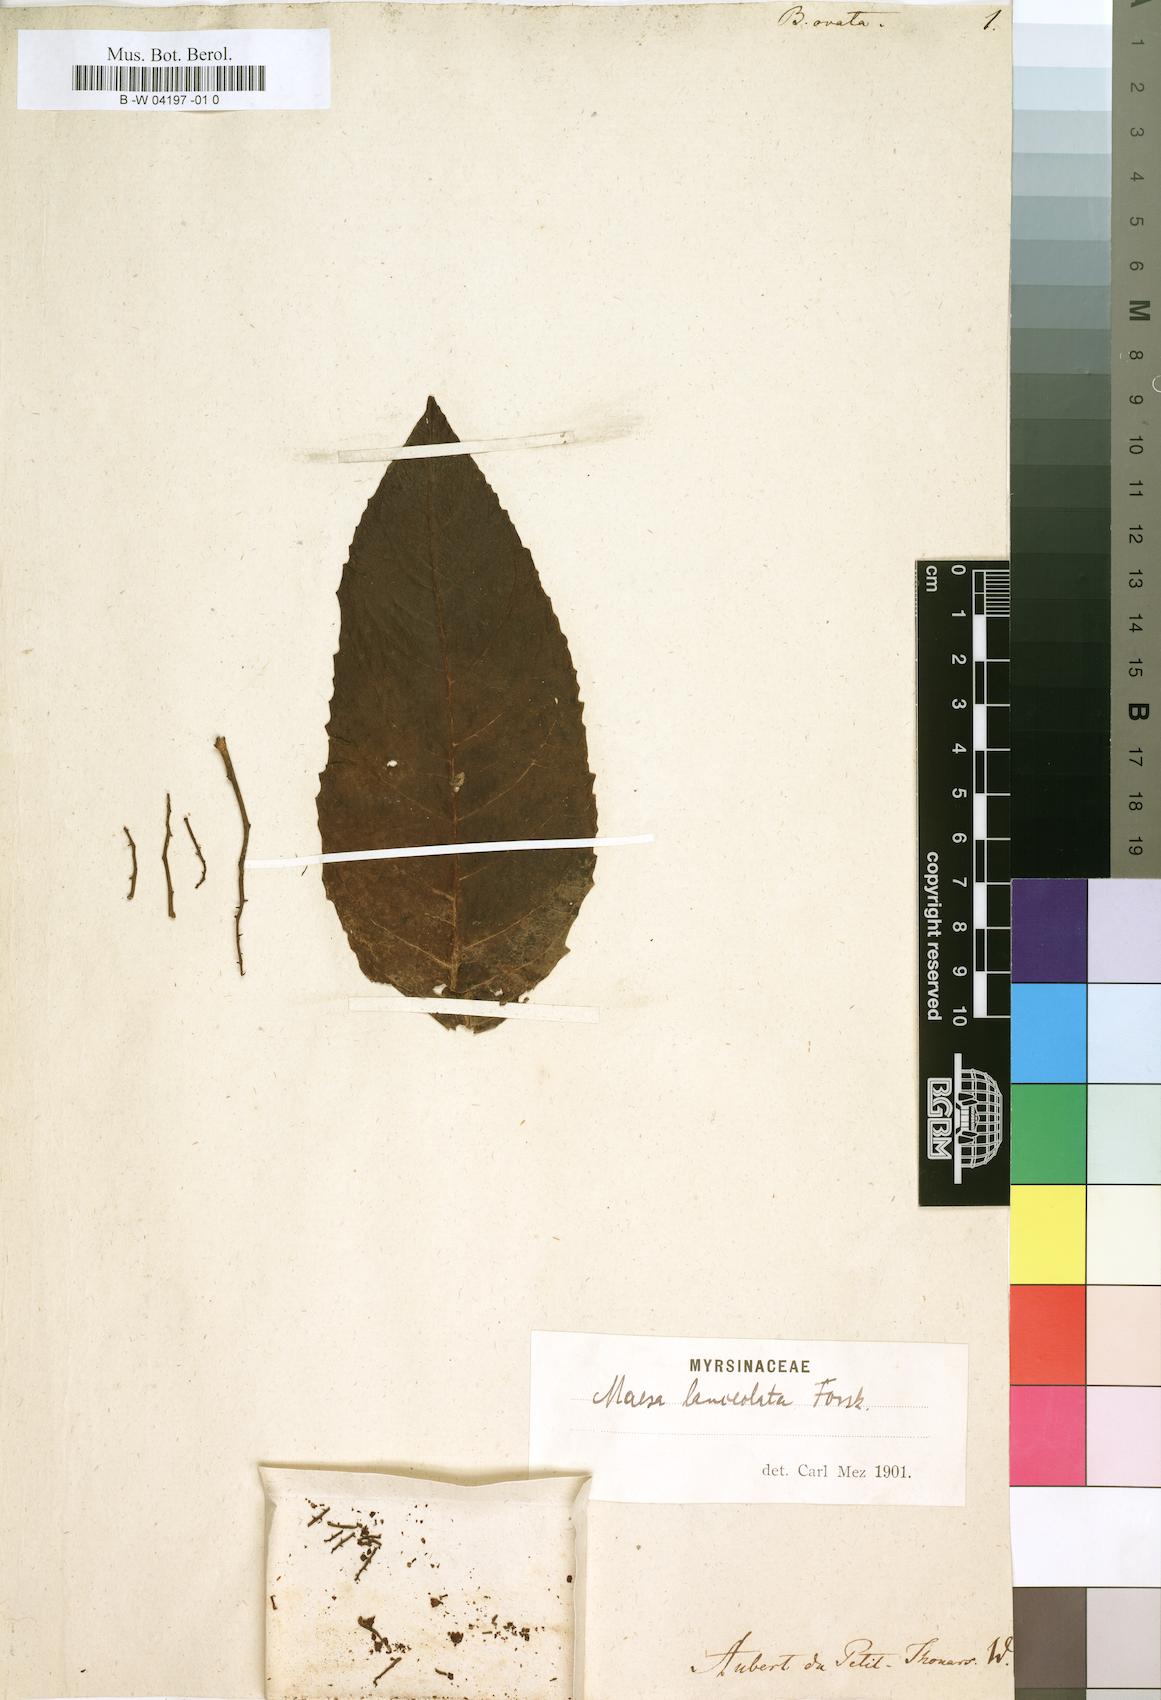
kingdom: Plantae
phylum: Tracheophyta
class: Magnoliopsida
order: Ericales
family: Primulaceae
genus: Maesa
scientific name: Maesa lanceolata
